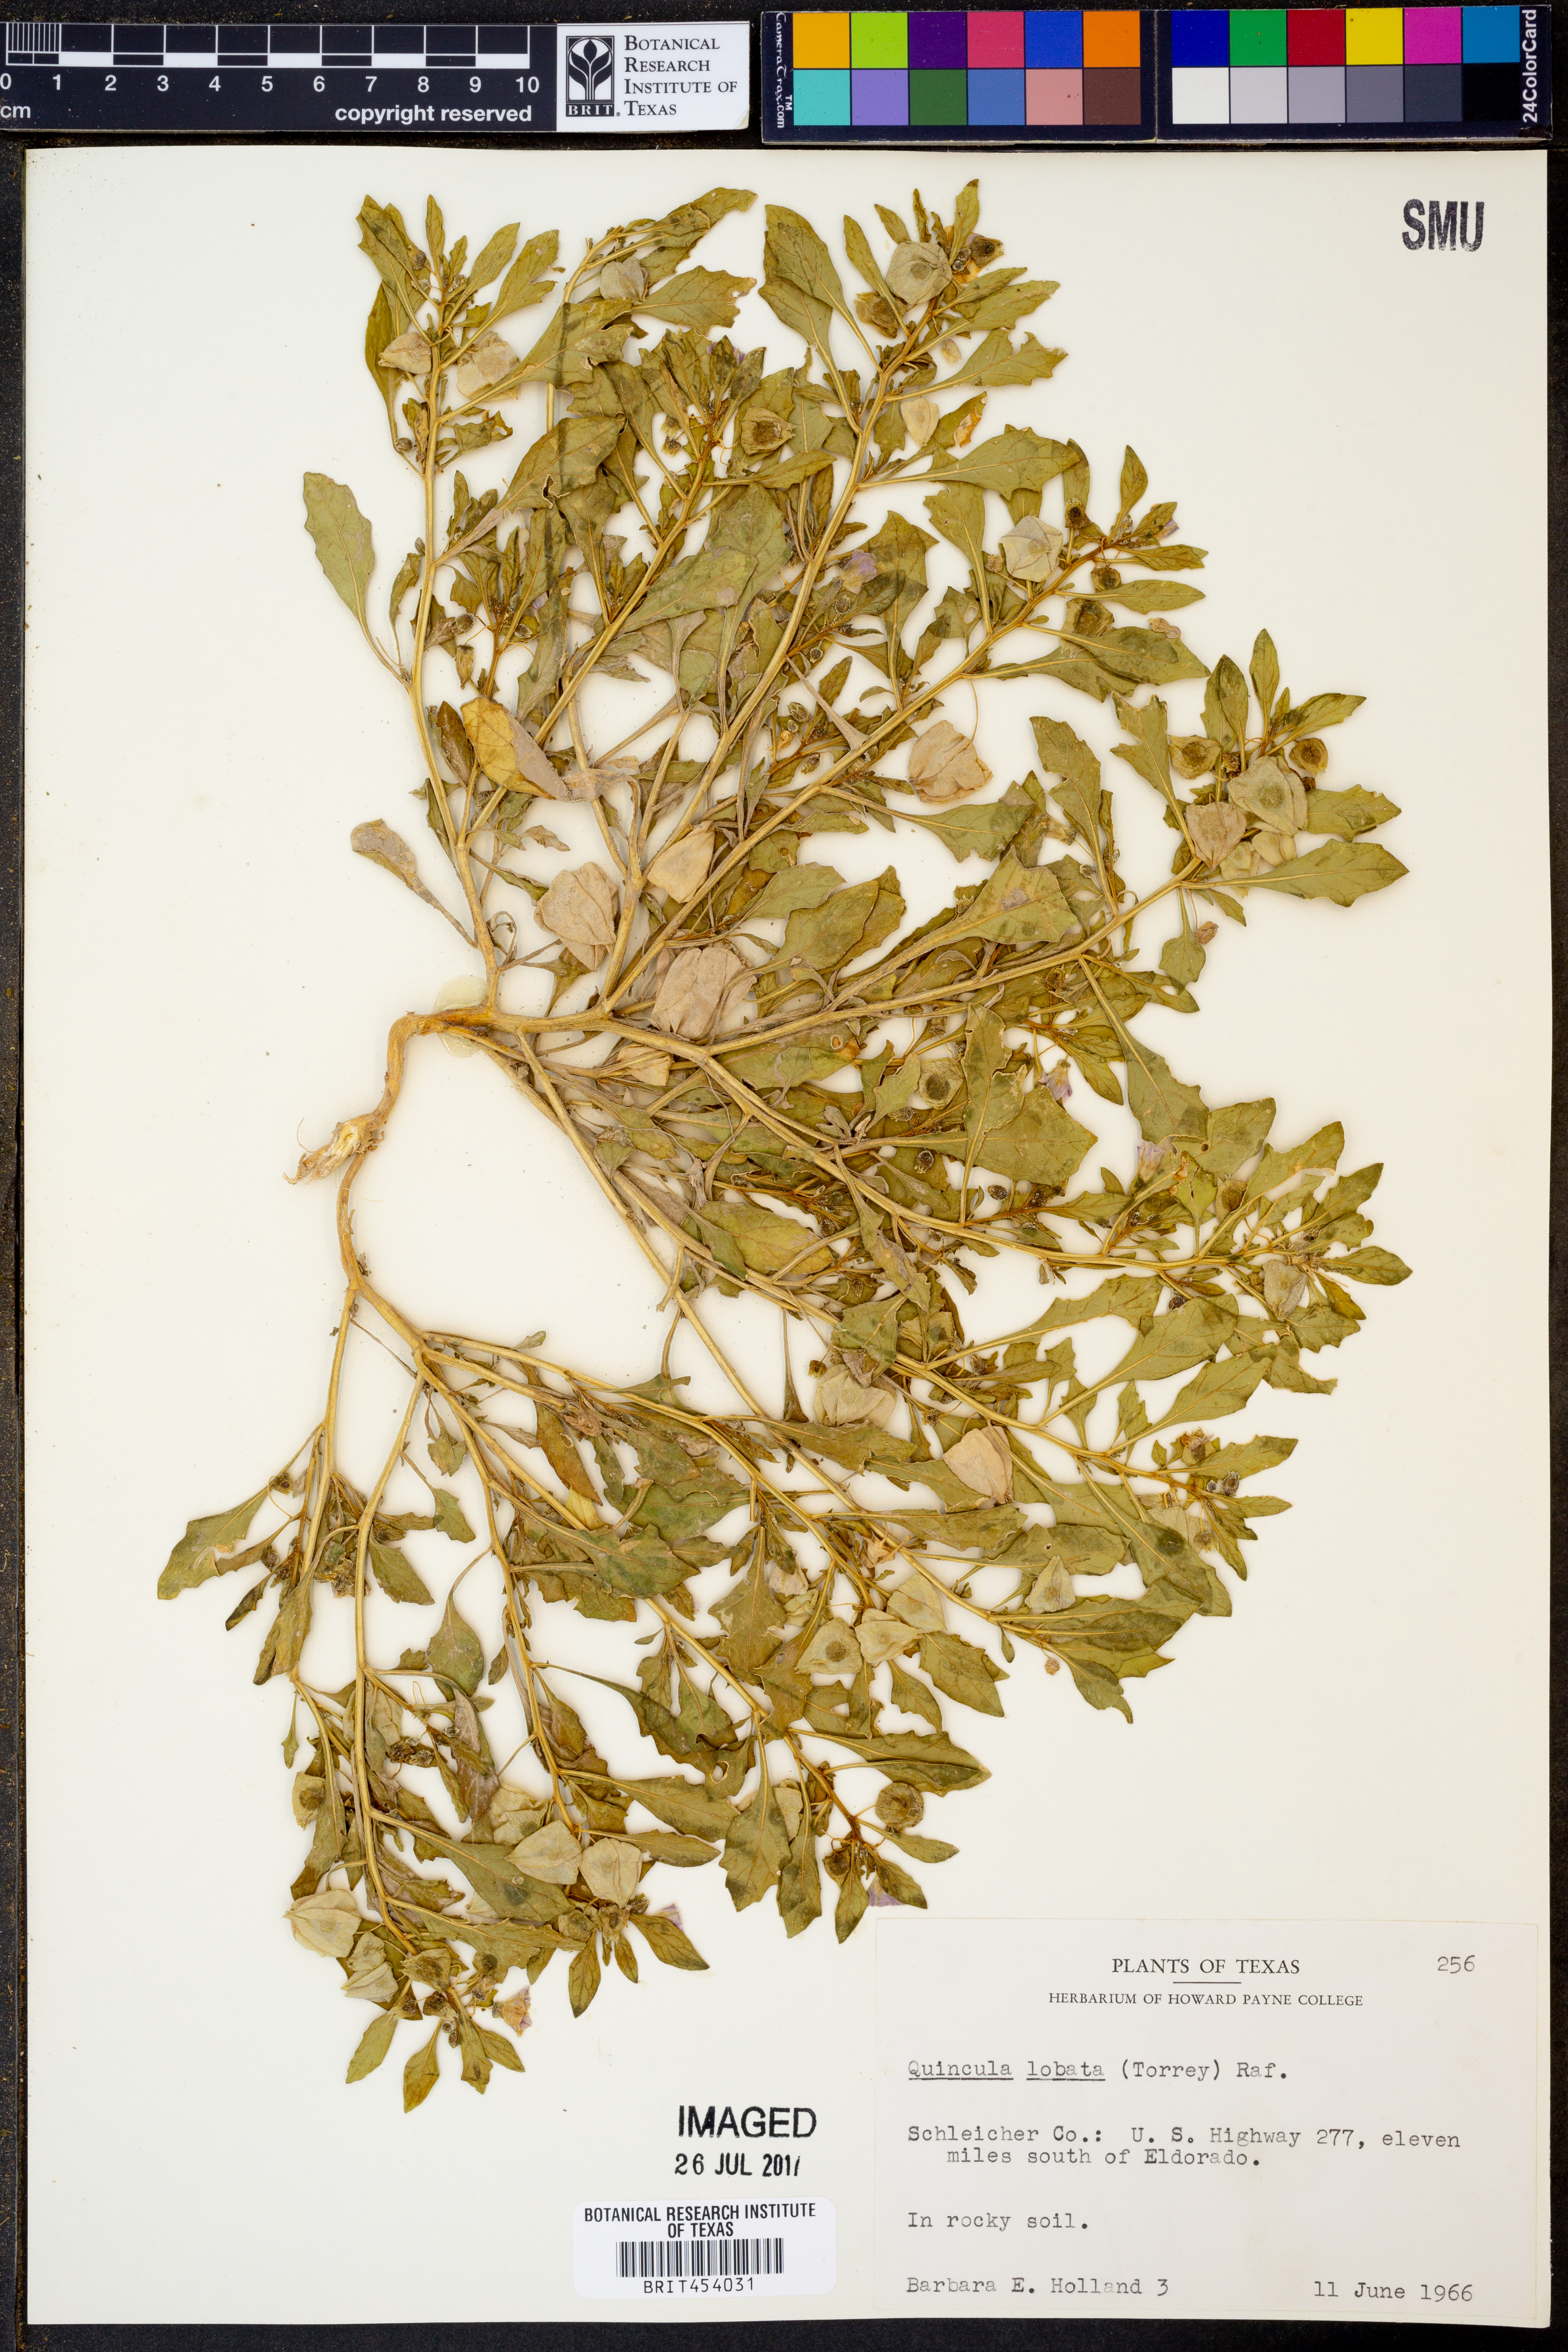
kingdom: Plantae
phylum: Tracheophyta
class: Magnoliopsida
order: Solanales
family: Solanaceae
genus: Quincula
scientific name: Quincula lobata
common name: Purple-ground-cherry
